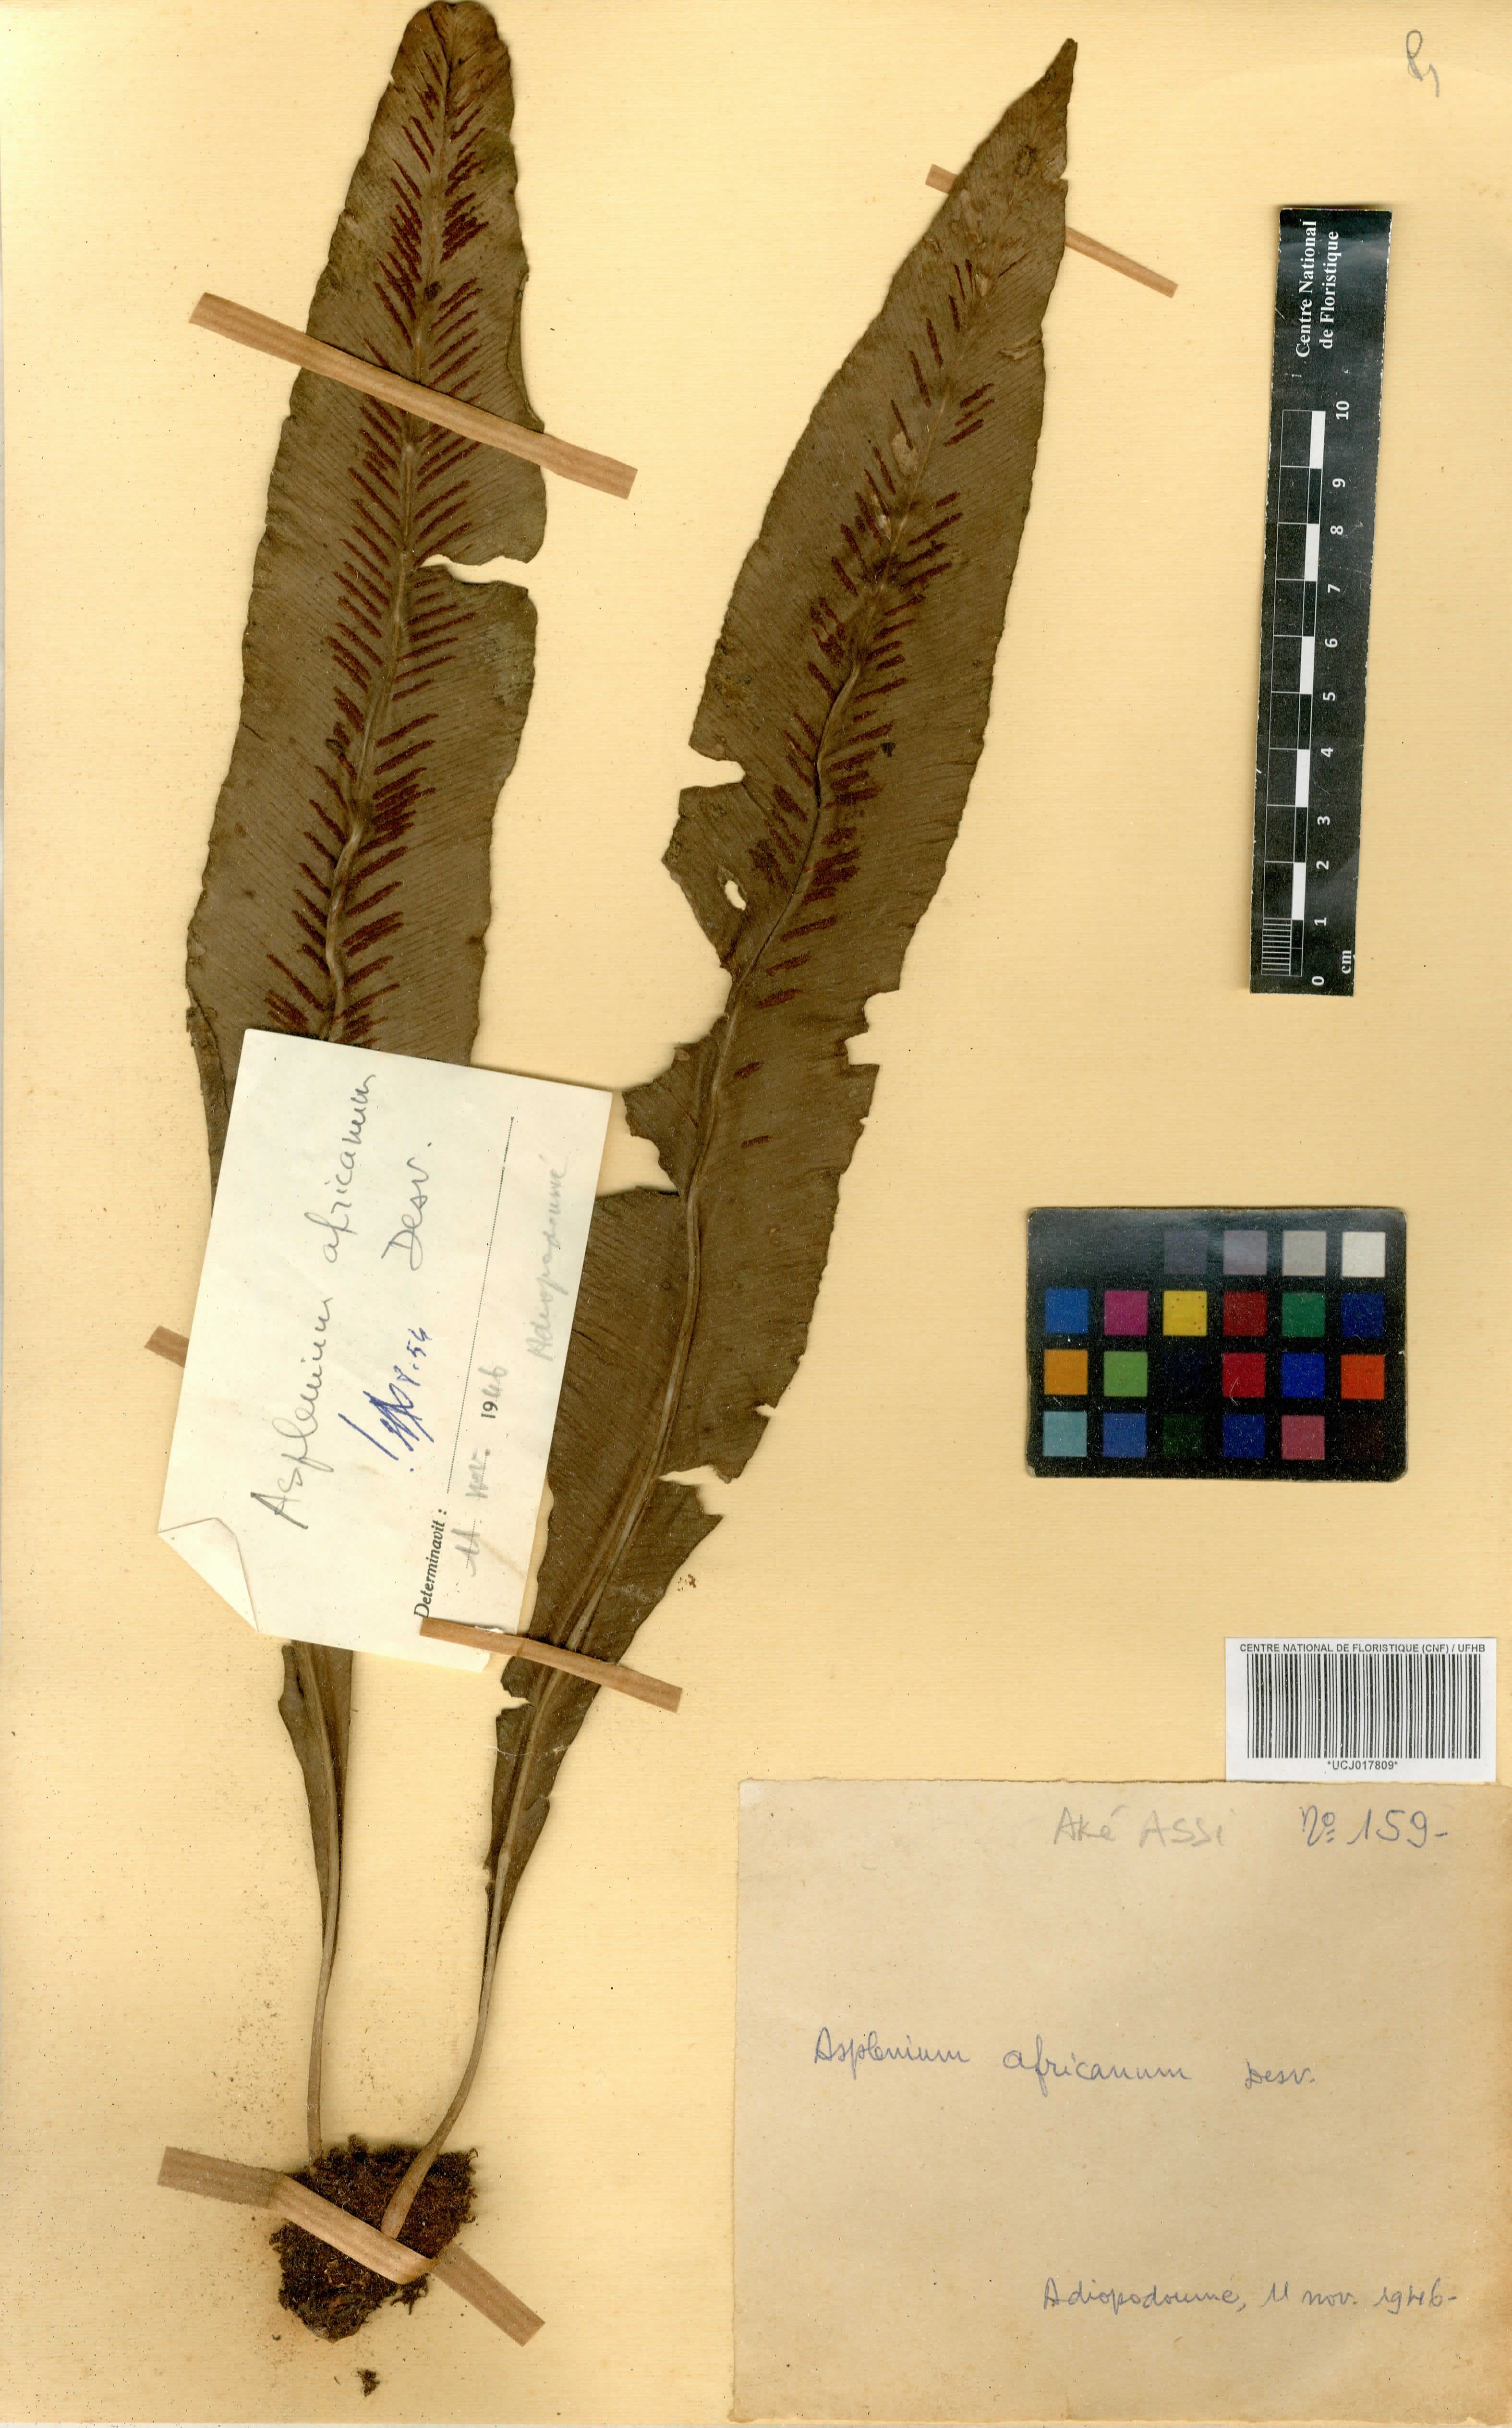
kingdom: Plantae
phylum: Tracheophyta
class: Polypodiopsida
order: Polypodiales
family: Aspleniaceae
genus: Asplenium
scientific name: Asplenium africanum
